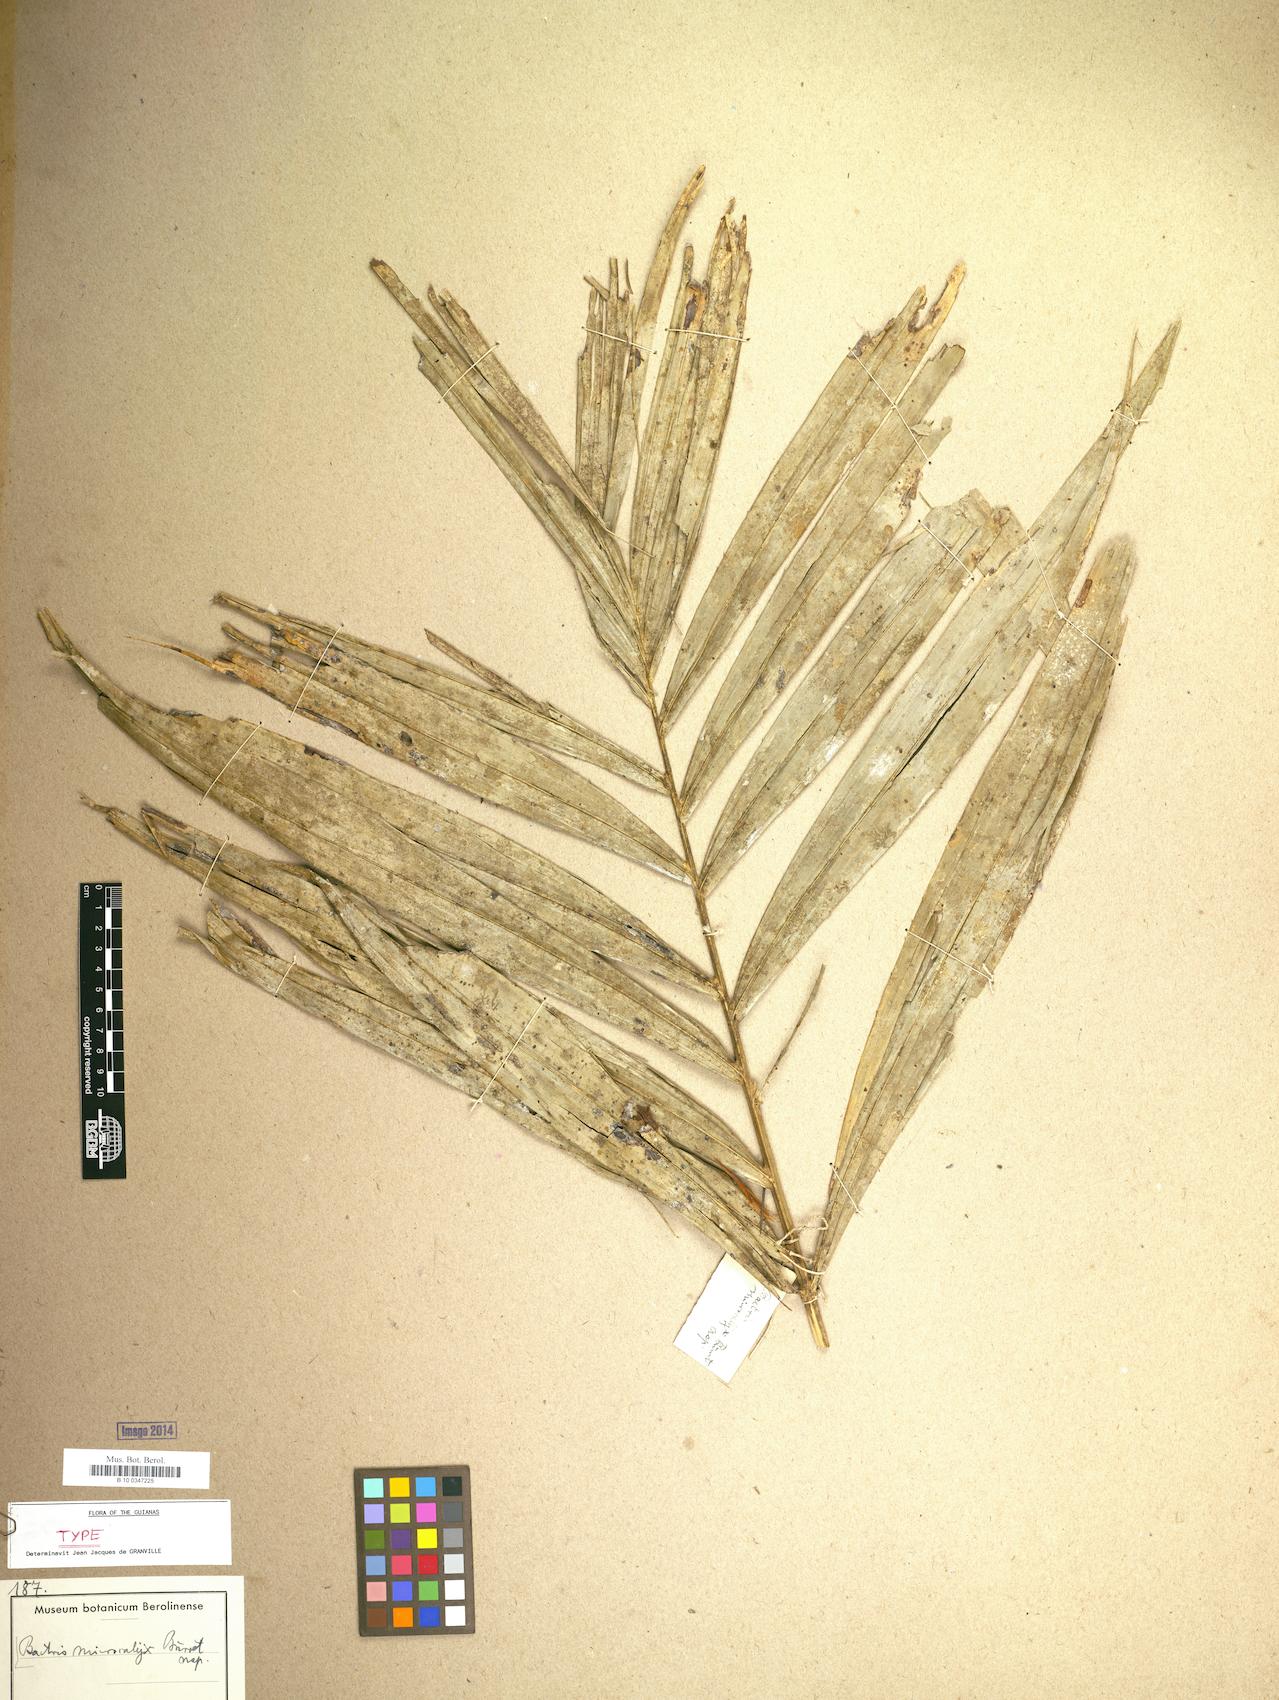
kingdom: Plantae
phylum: Tracheophyta
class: Liliopsida
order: Arecales
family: Arecaceae
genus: Bactris
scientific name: Bactris acanthocarpa
